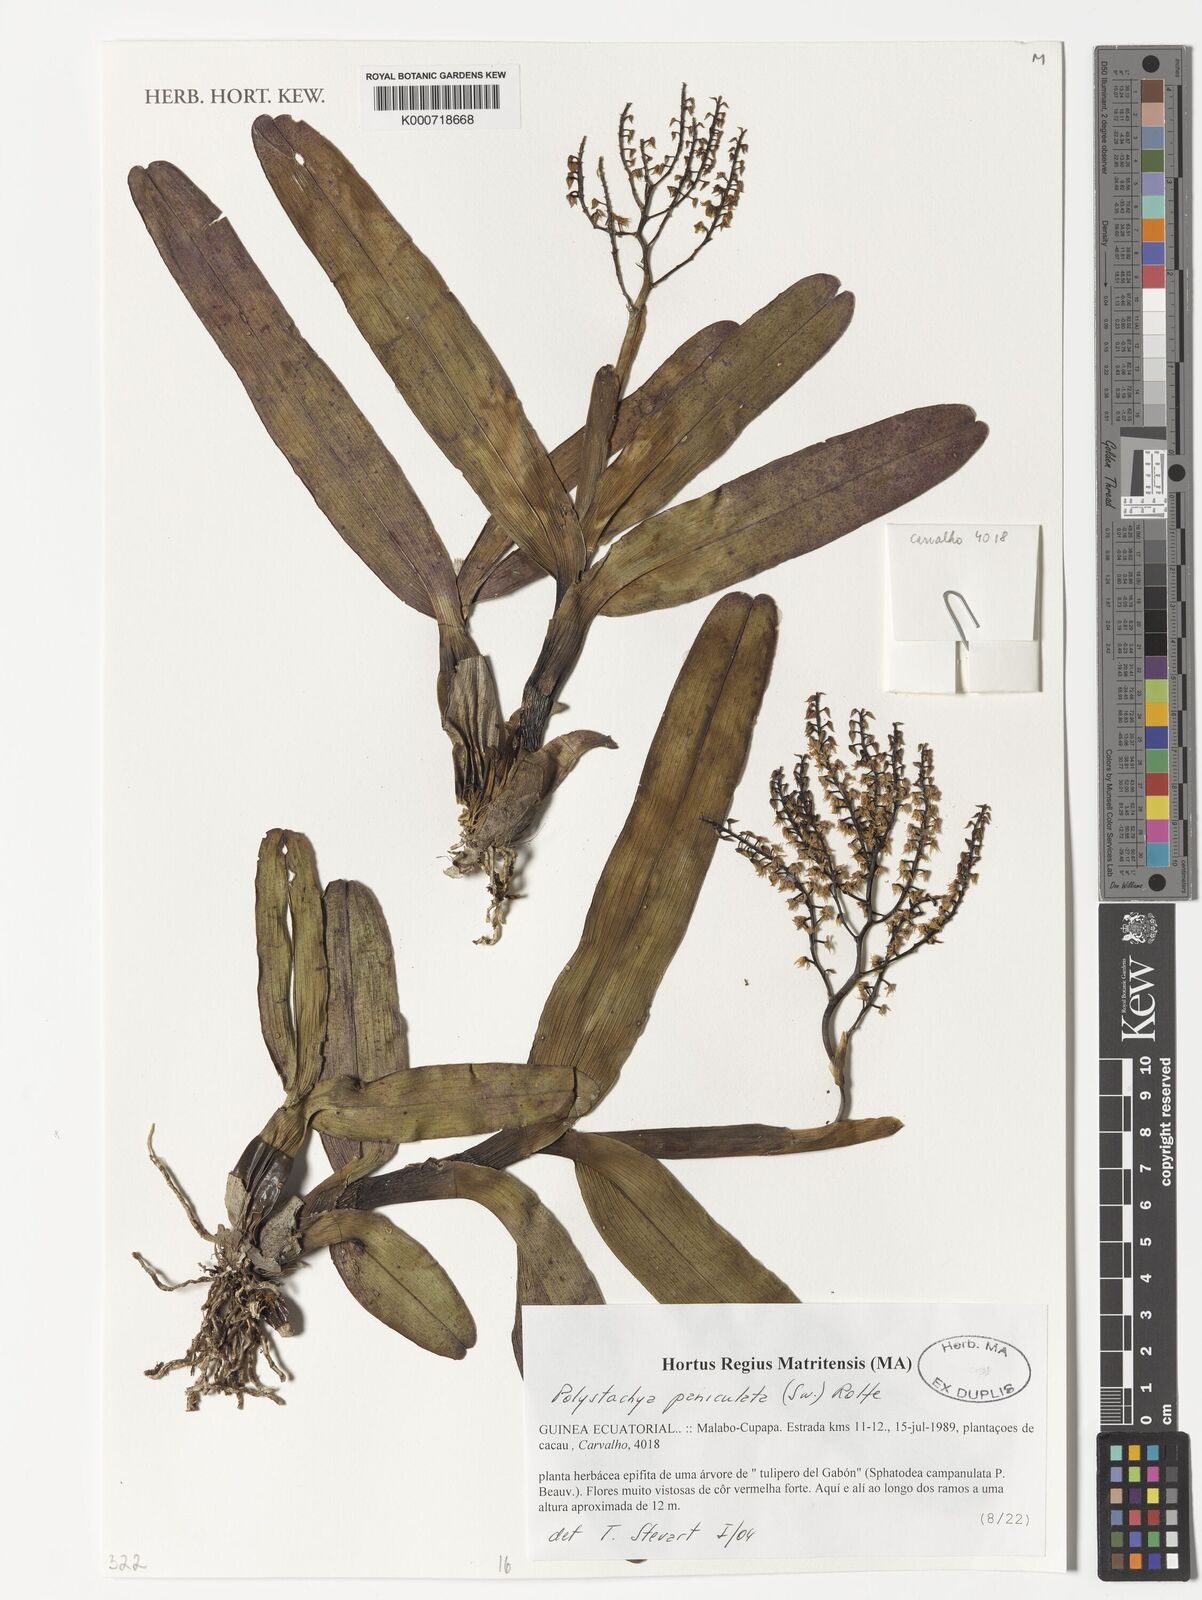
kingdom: Plantae
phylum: Tracheophyta
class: Liliopsida
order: Asparagales
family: Orchidaceae
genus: Polystachya
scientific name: Polystachya paniculata
